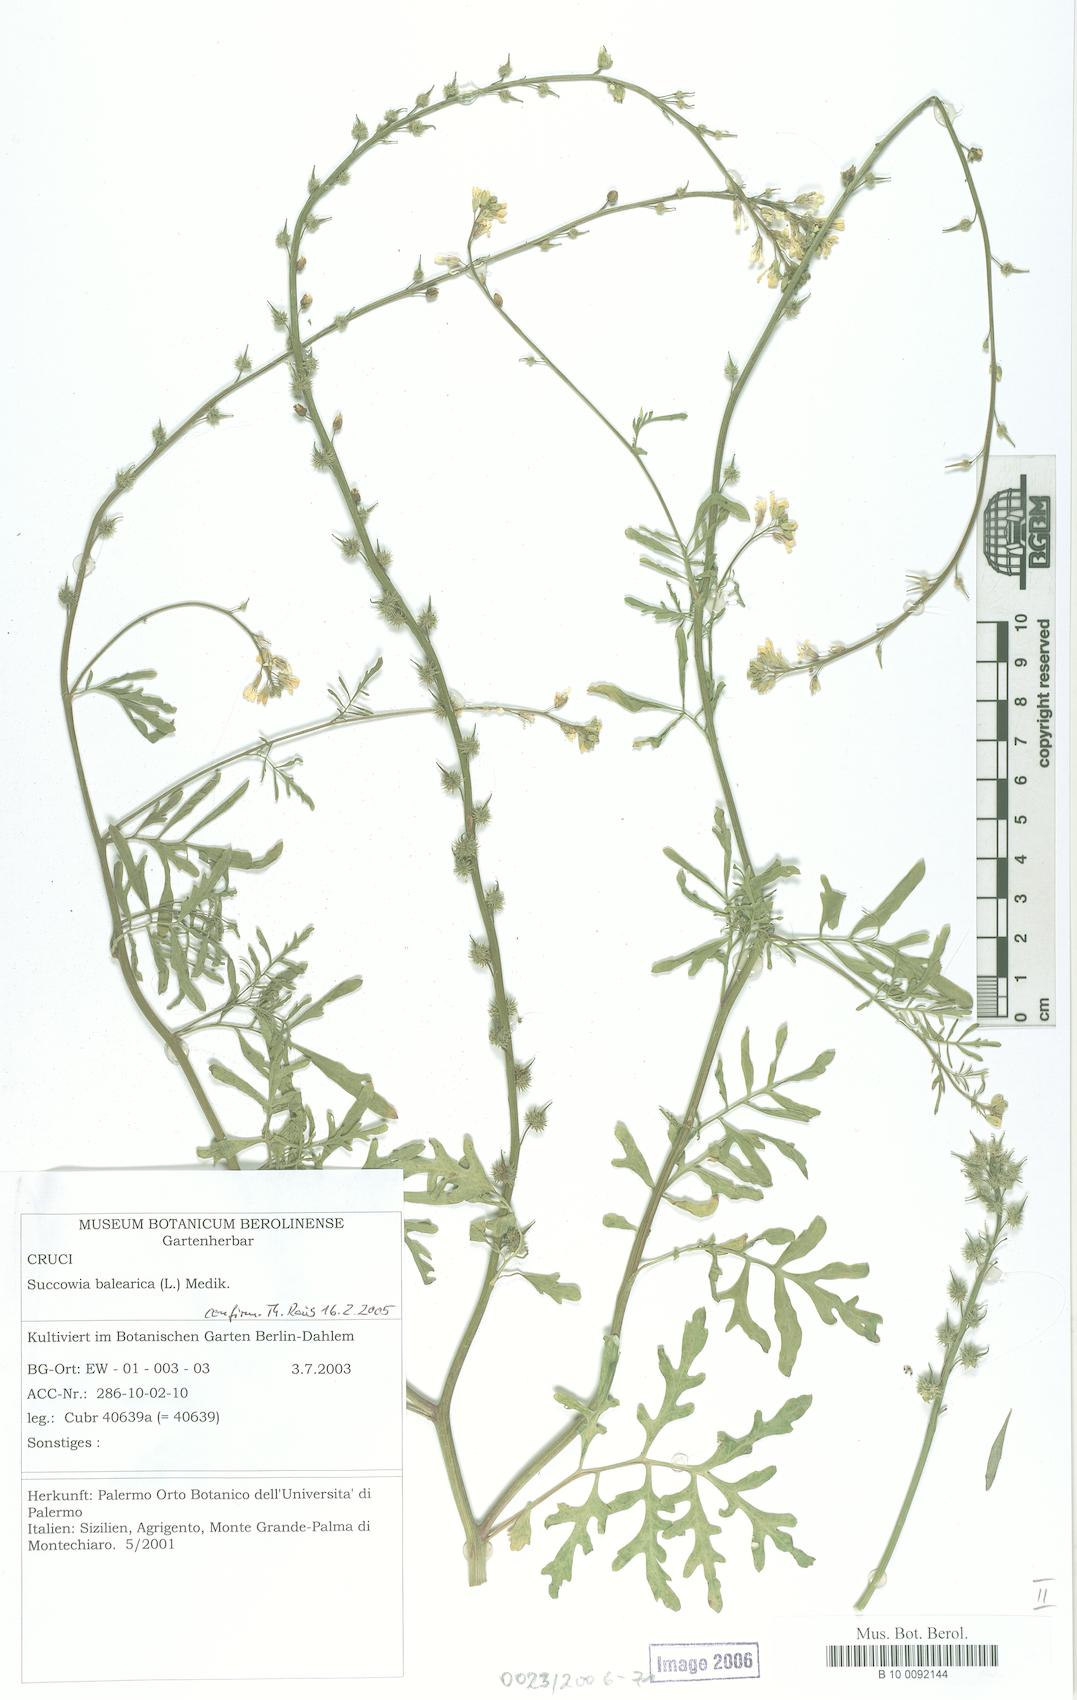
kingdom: Plantae
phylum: Tracheophyta
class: Magnoliopsida
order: Brassicales
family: Brassicaceae
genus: Succowia
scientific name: Succowia balearica
